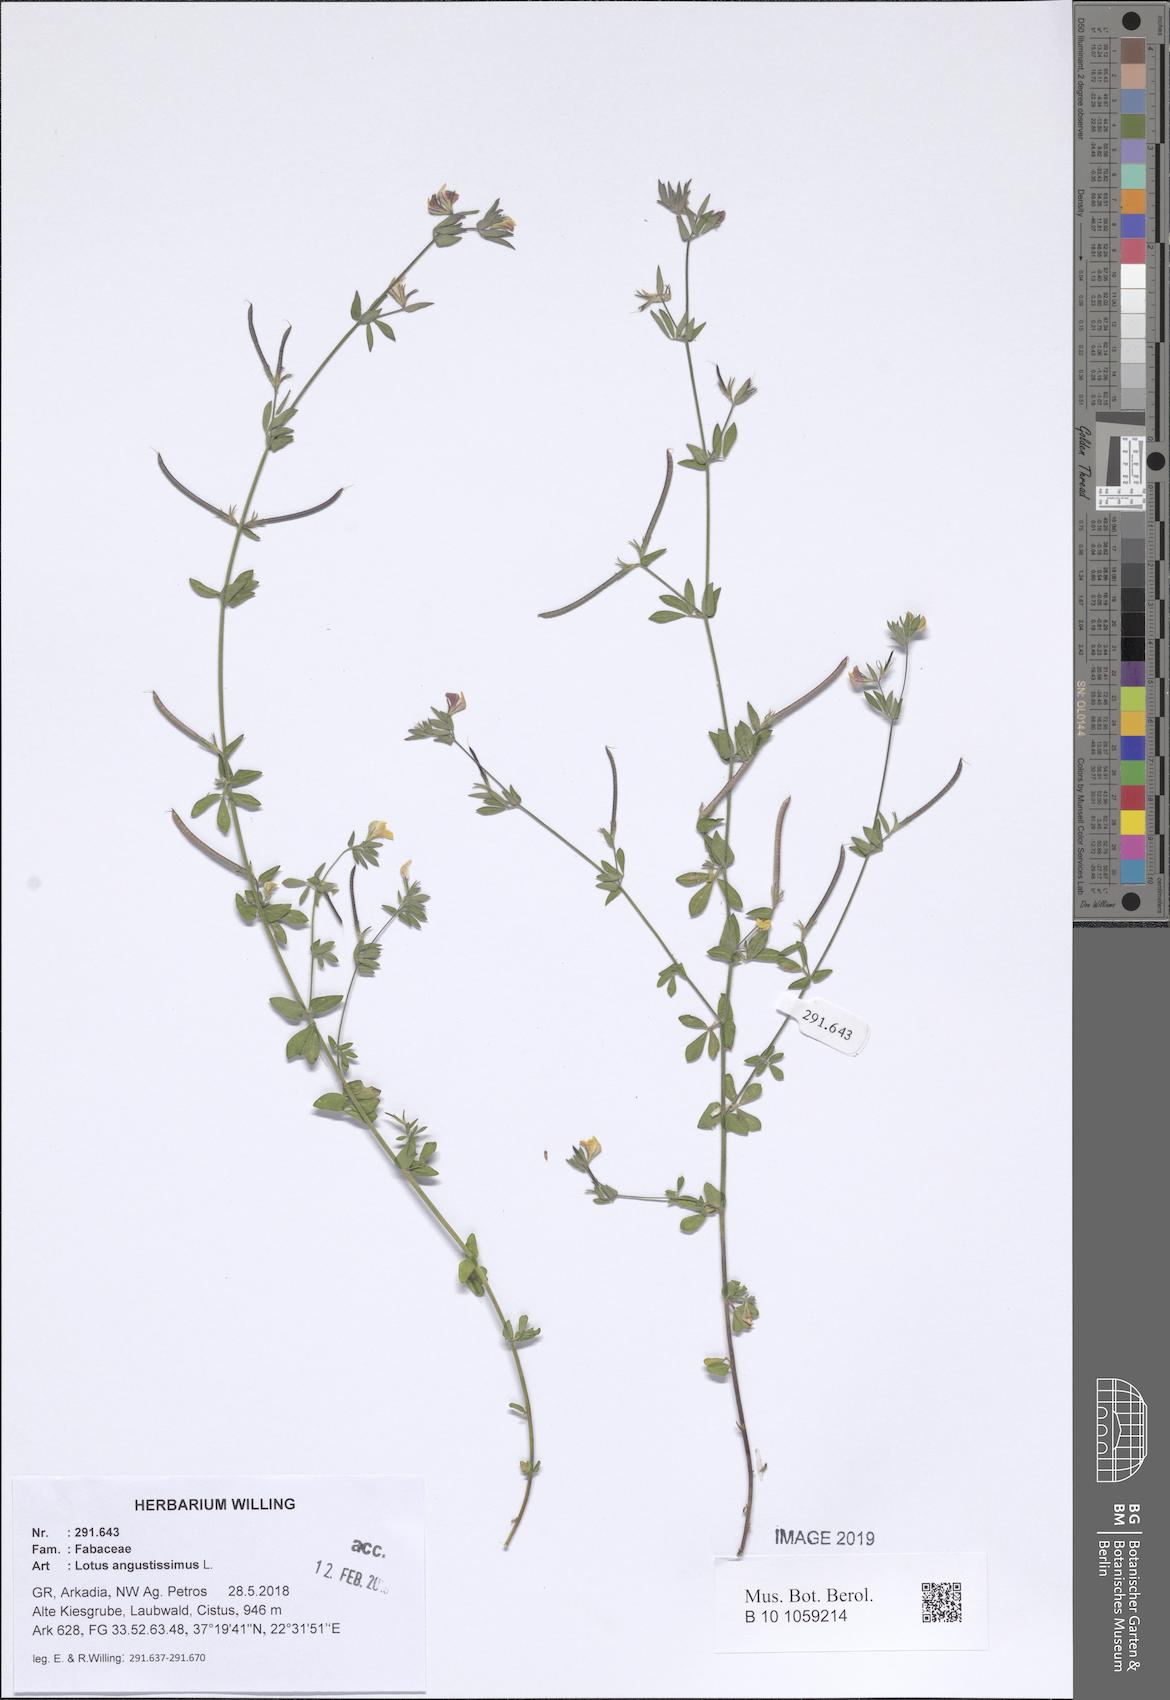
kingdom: Plantae
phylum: Tracheophyta
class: Magnoliopsida
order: Fabales
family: Fabaceae
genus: Lotus
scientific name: Lotus angustissimus
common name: Slender bird's-foot trefoil
